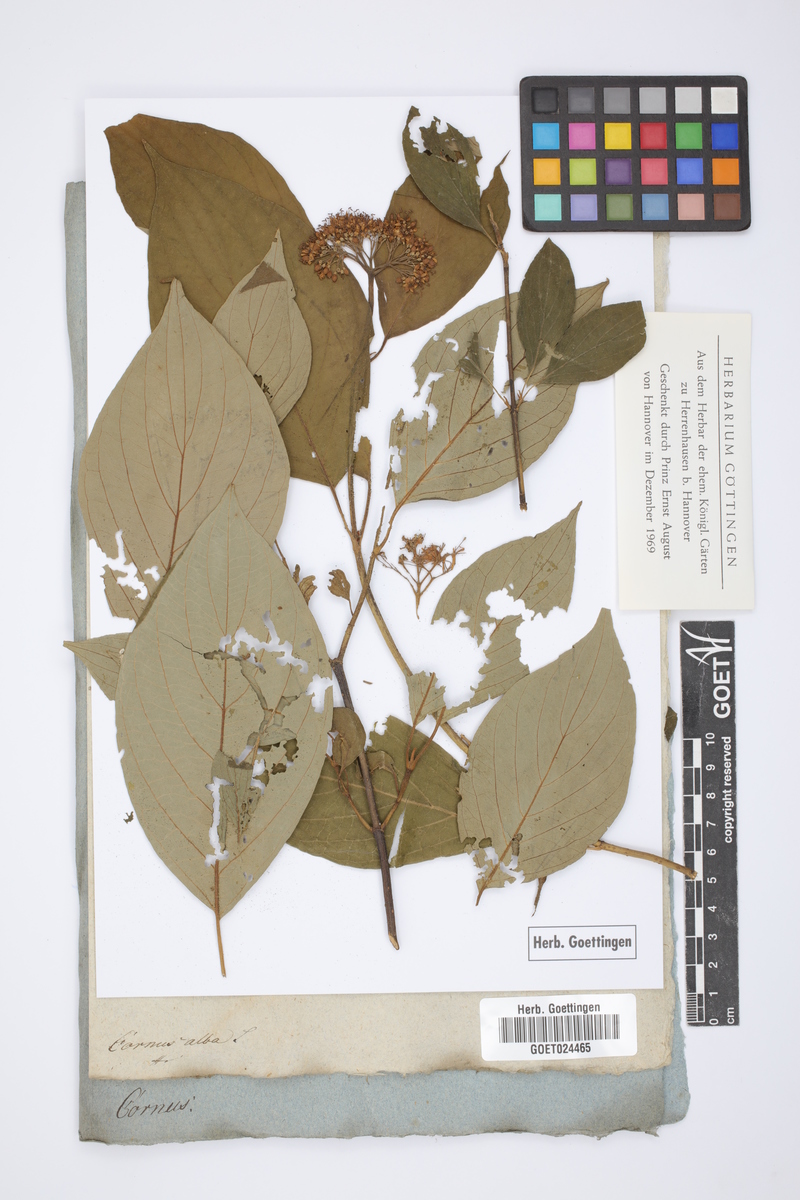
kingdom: Plantae
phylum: Tracheophyta
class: Magnoliopsida
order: Cornales
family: Cornaceae
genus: Cornus
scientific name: Cornus alba
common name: White dogwood
